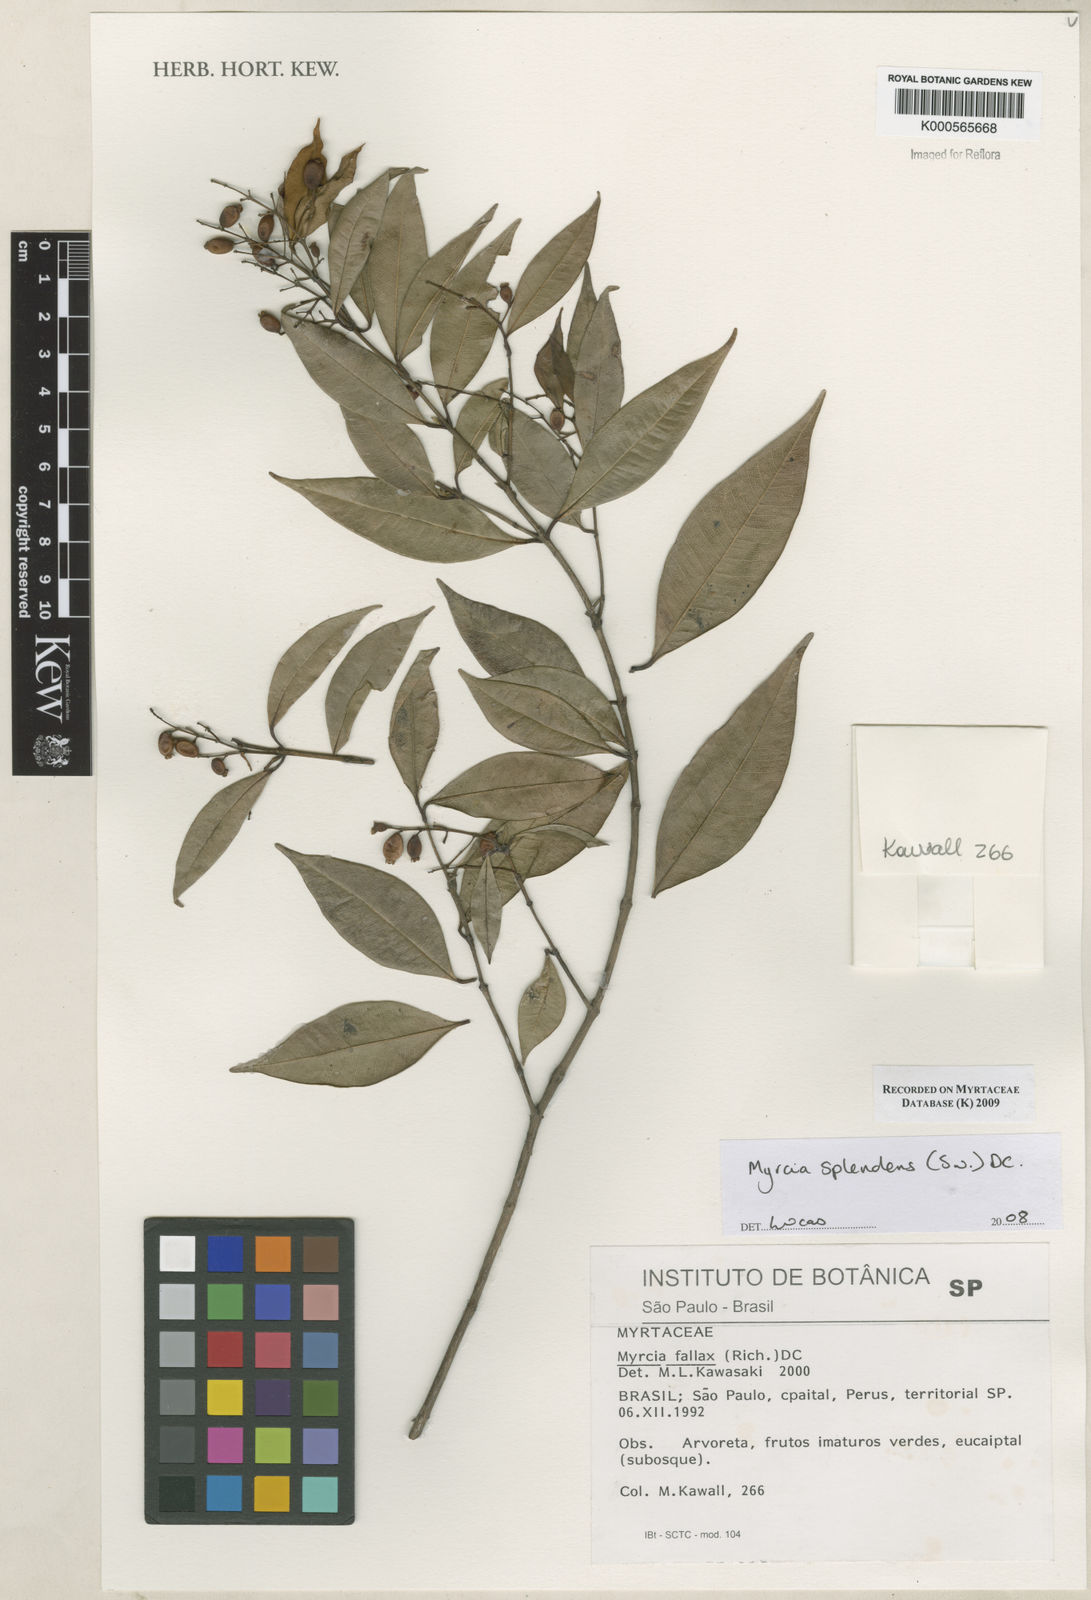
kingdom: Plantae
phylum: Tracheophyta
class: Magnoliopsida
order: Myrtales
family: Myrtaceae
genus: Myrcia
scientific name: Myrcia splendens
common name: Surinam cherry
